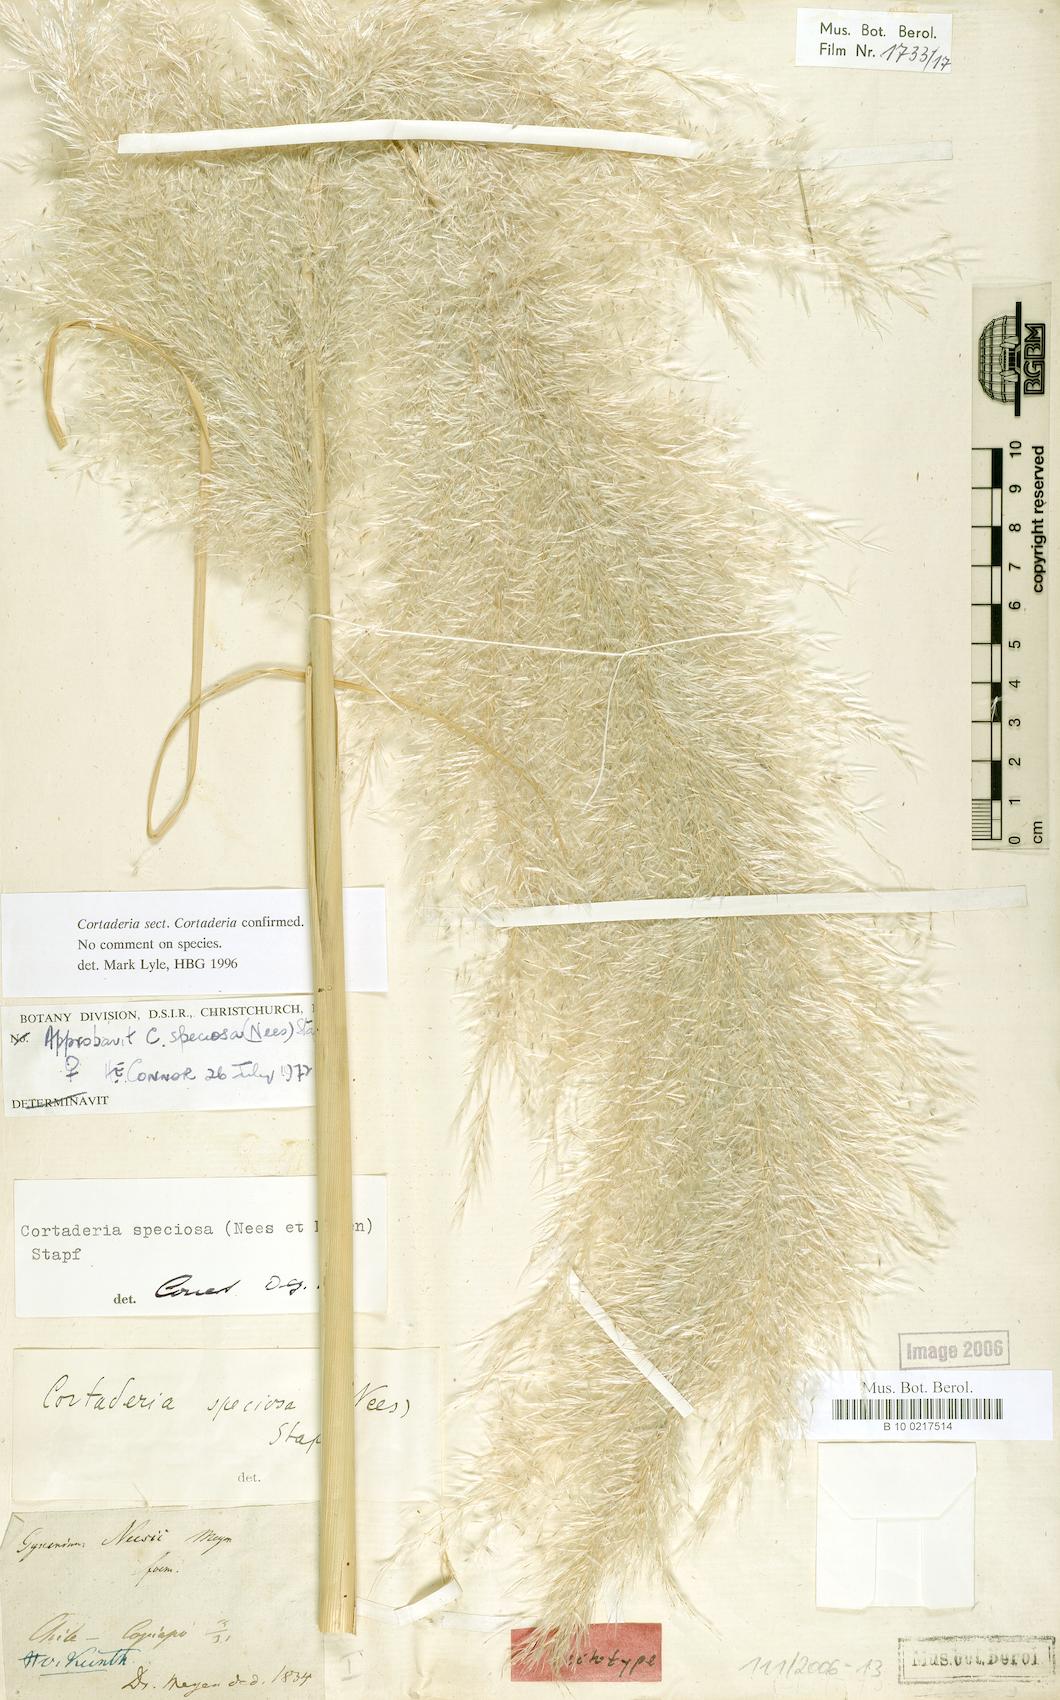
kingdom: Plantae
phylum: Tracheophyta
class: Liliopsida
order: Poales
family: Poaceae
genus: Cortaderia
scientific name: Cortaderia speciosa
